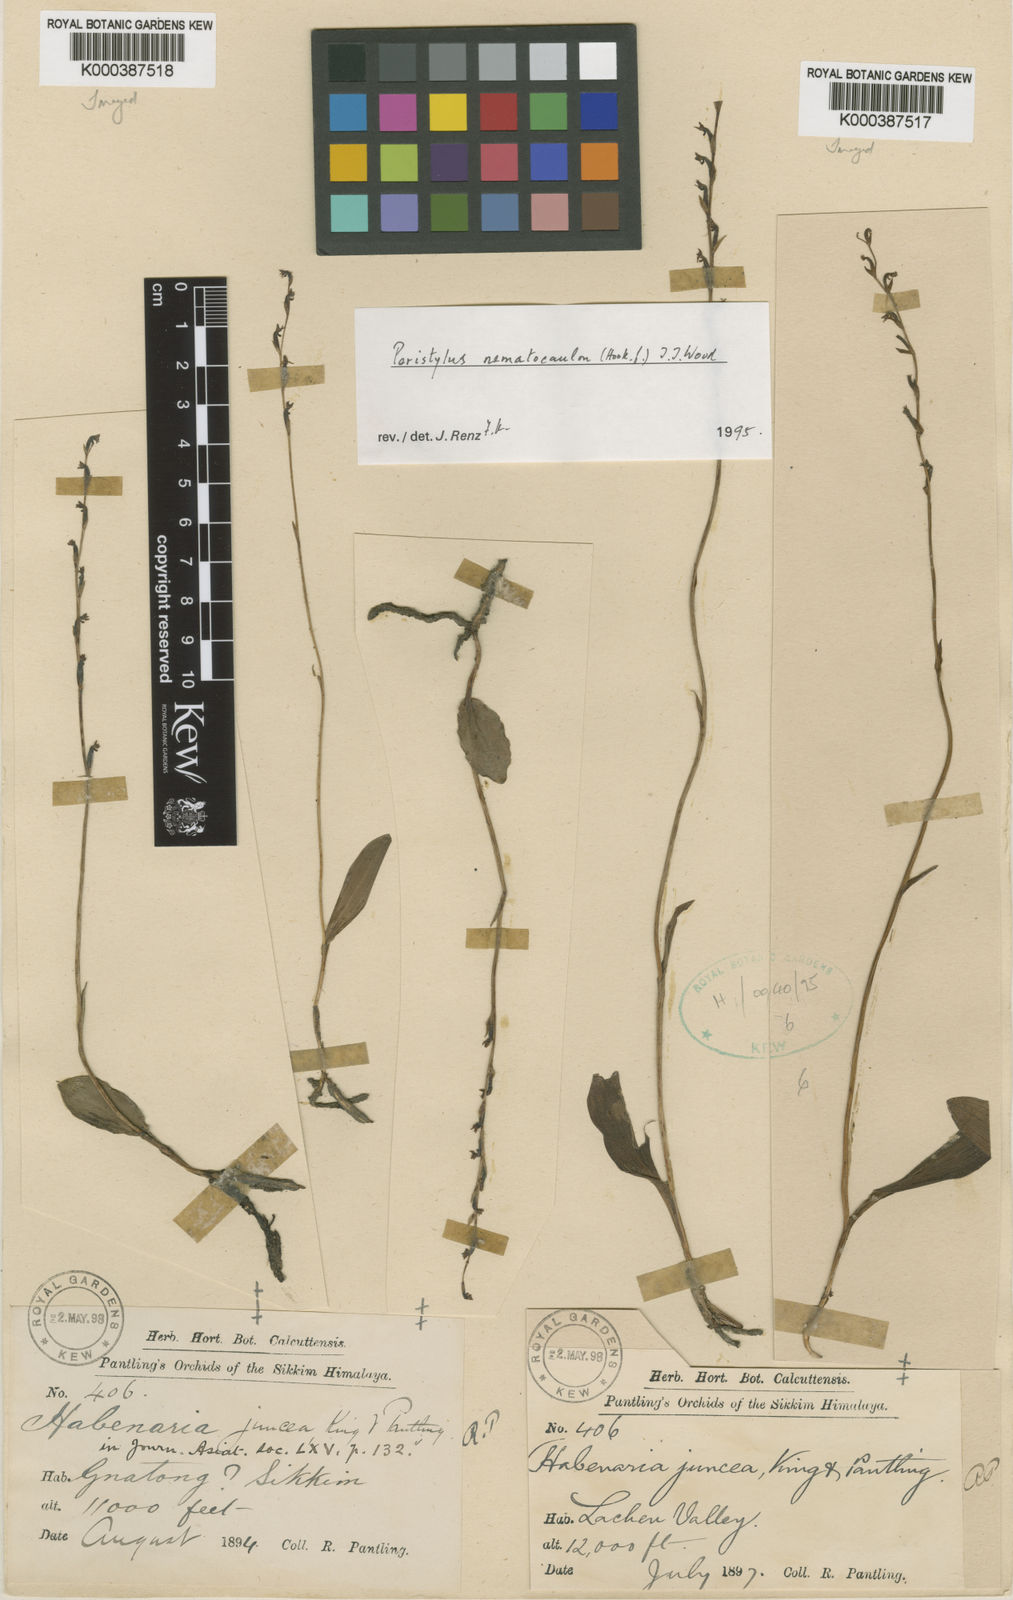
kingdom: Plantae
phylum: Tracheophyta
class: Liliopsida
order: Asparagales
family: Orchidaceae
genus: Peristylus
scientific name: Peristylus
